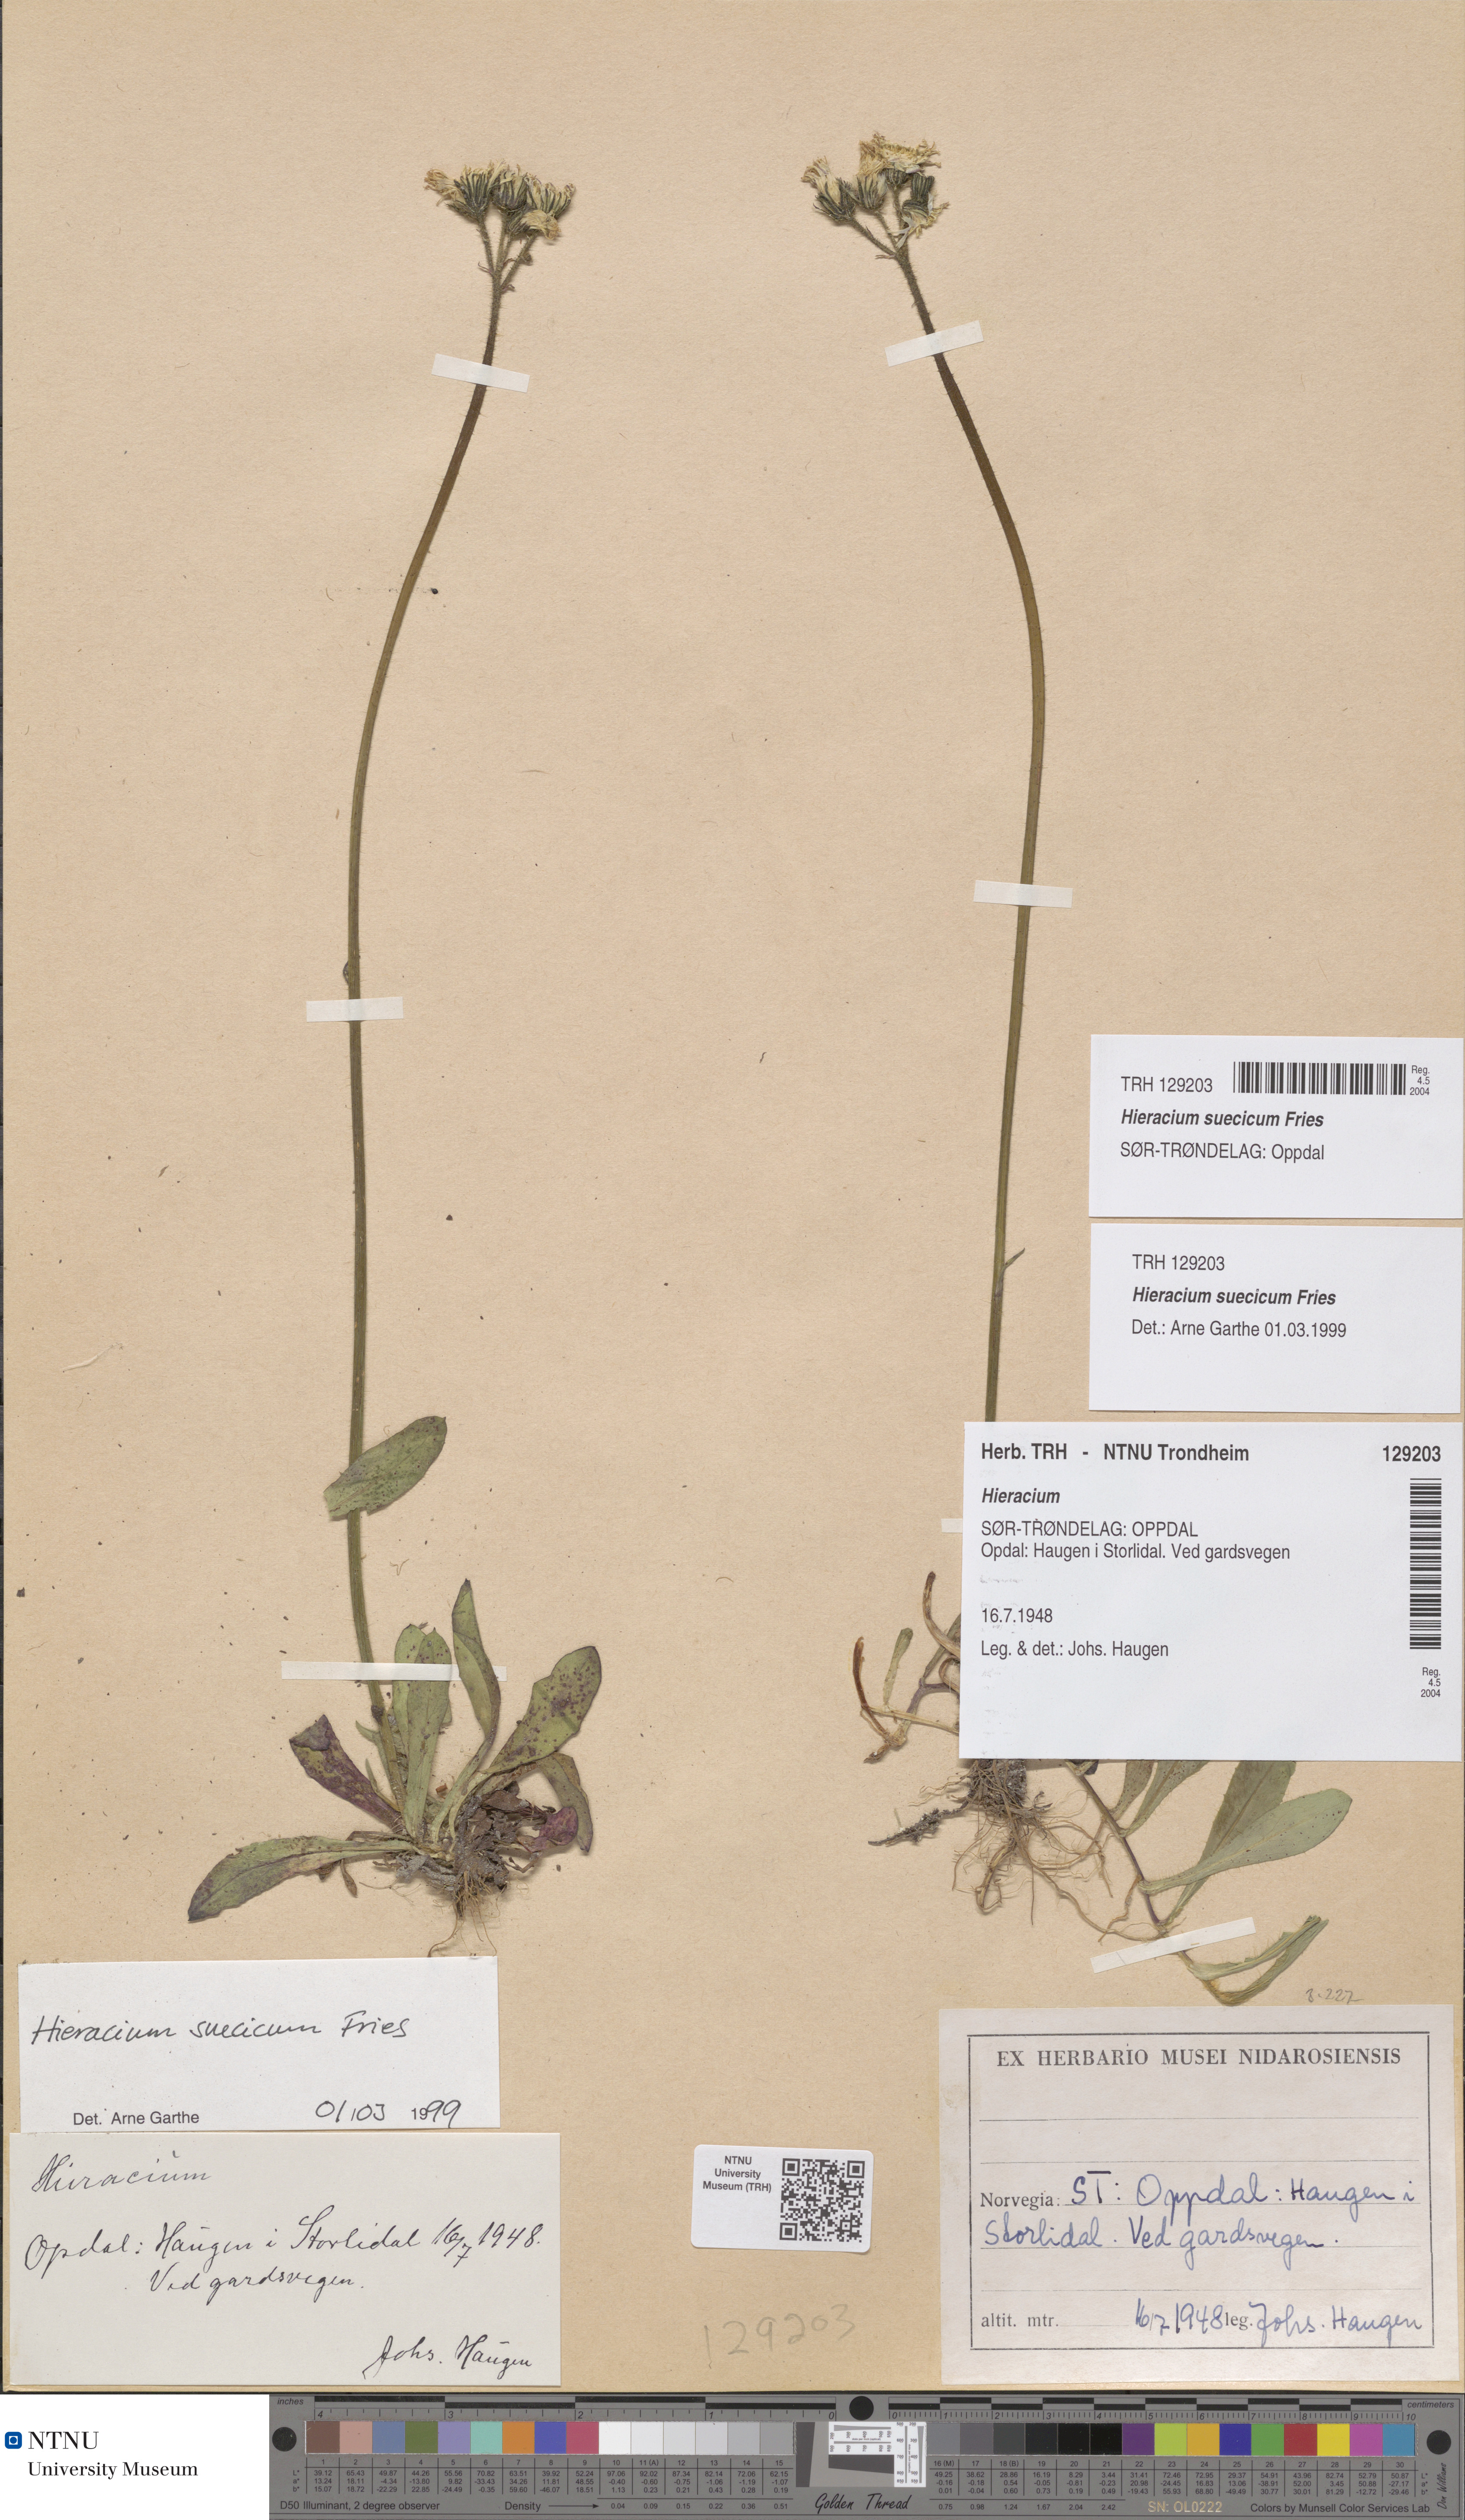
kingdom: Plantae
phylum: Tracheophyta
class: Magnoliopsida
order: Asterales
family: Asteraceae
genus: Pilosella
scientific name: Pilosella dubia
